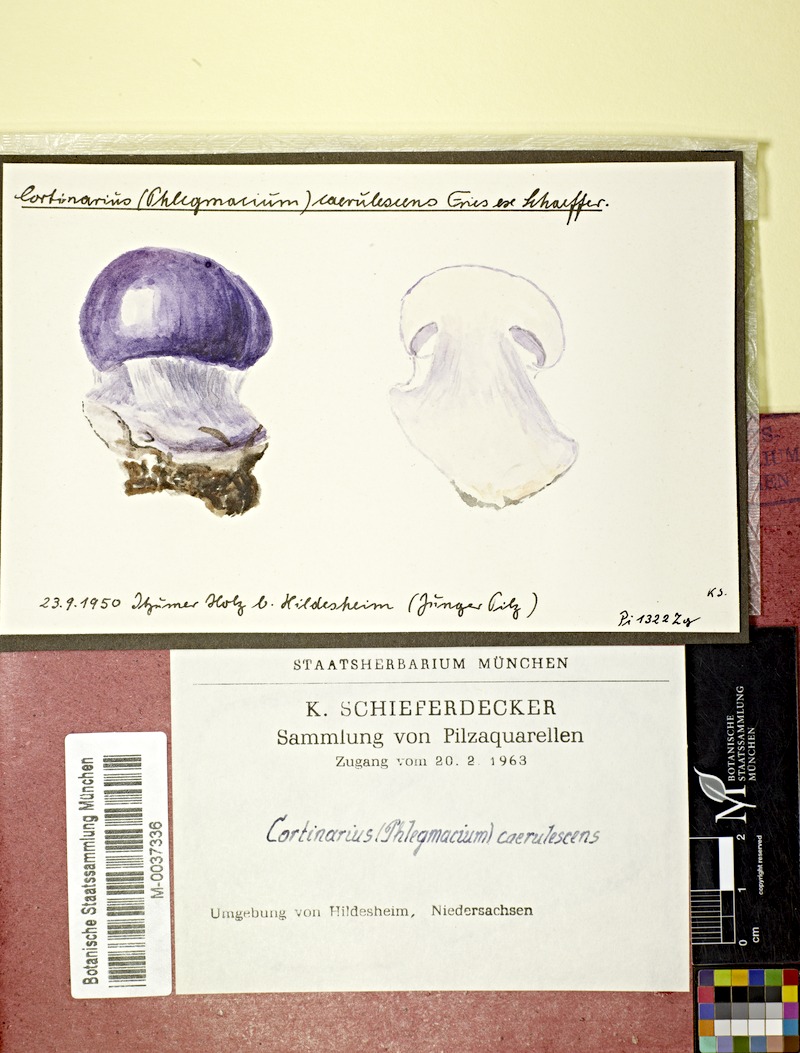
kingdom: Fungi
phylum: Basidiomycota
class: Agaricomycetes
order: Agaricales
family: Cortinariaceae
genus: Cortinarius
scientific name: Cortinarius caerulescens
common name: Mealy bigfoot webcap
